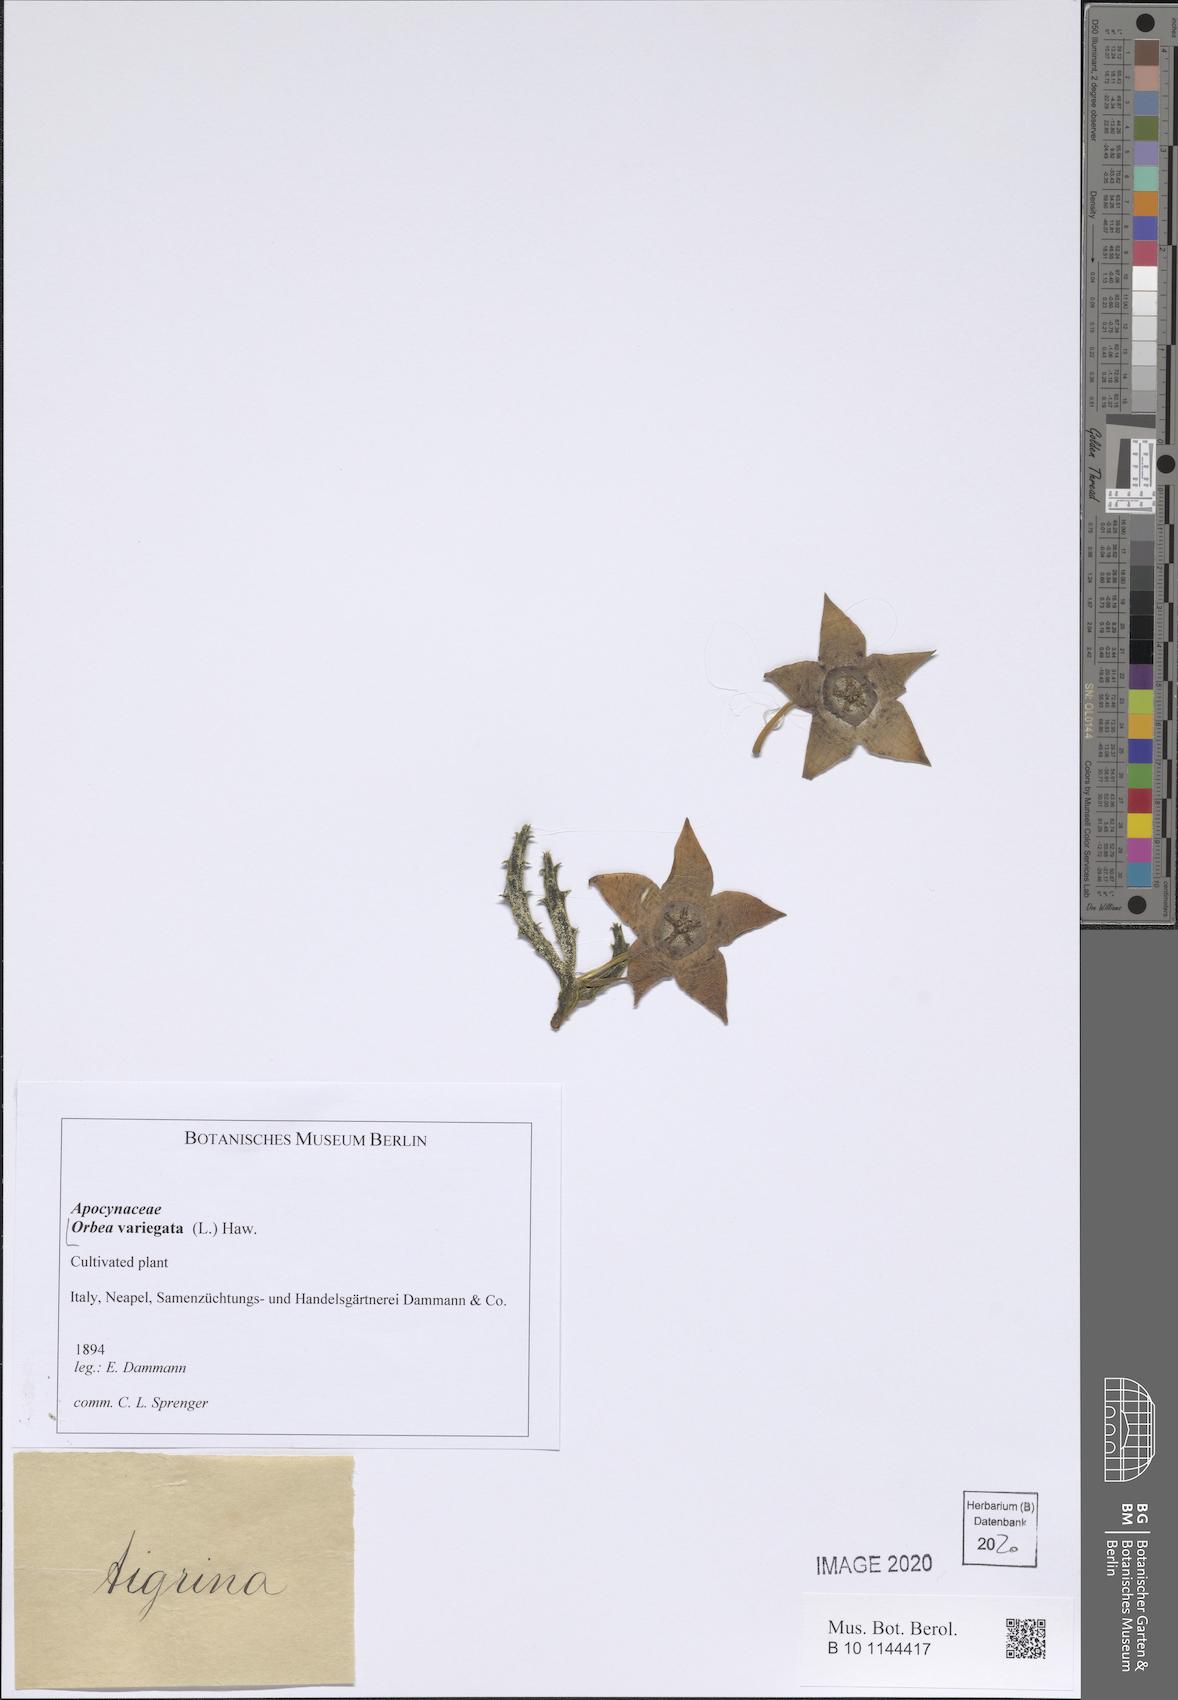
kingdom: Plantae
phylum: Tracheophyta
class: Magnoliopsida
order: Gentianales
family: Apocynaceae
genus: Ceropegia
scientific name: Ceropegia mixta
